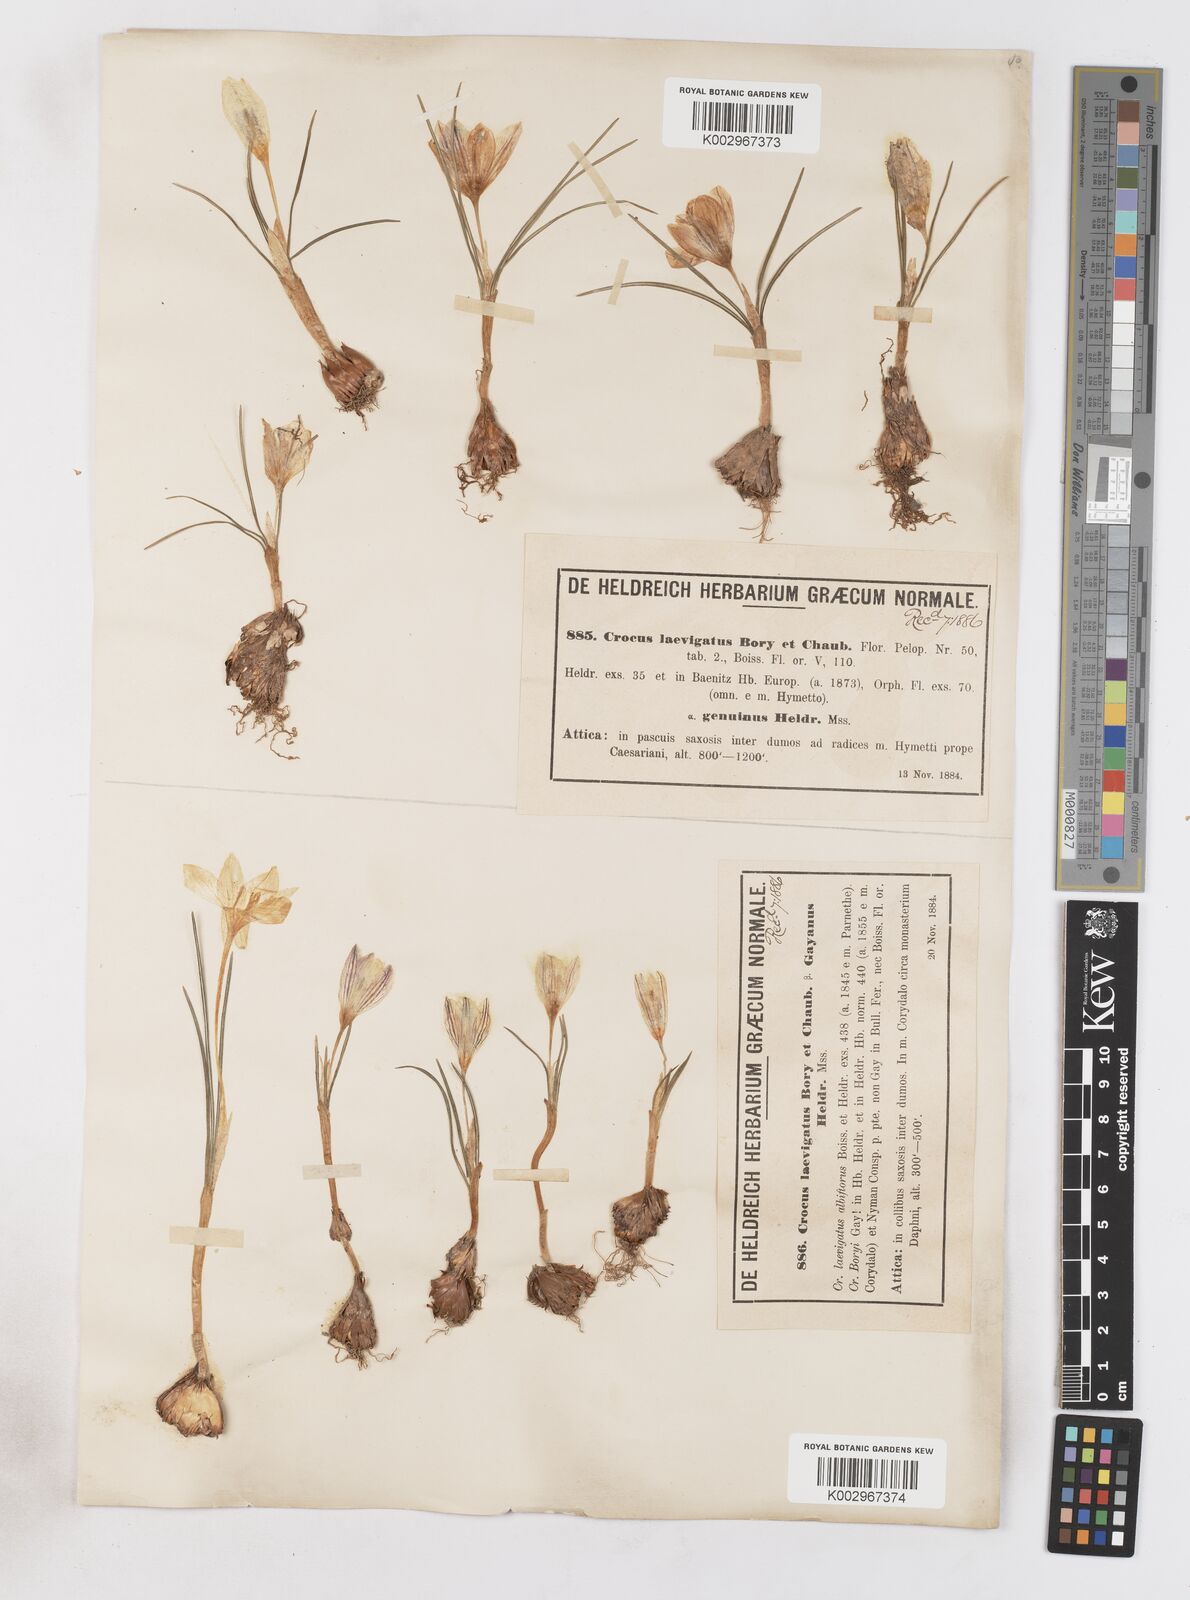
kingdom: Plantae
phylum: Tracheophyta
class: Liliopsida
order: Asparagales
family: Iridaceae
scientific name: Iridaceae
